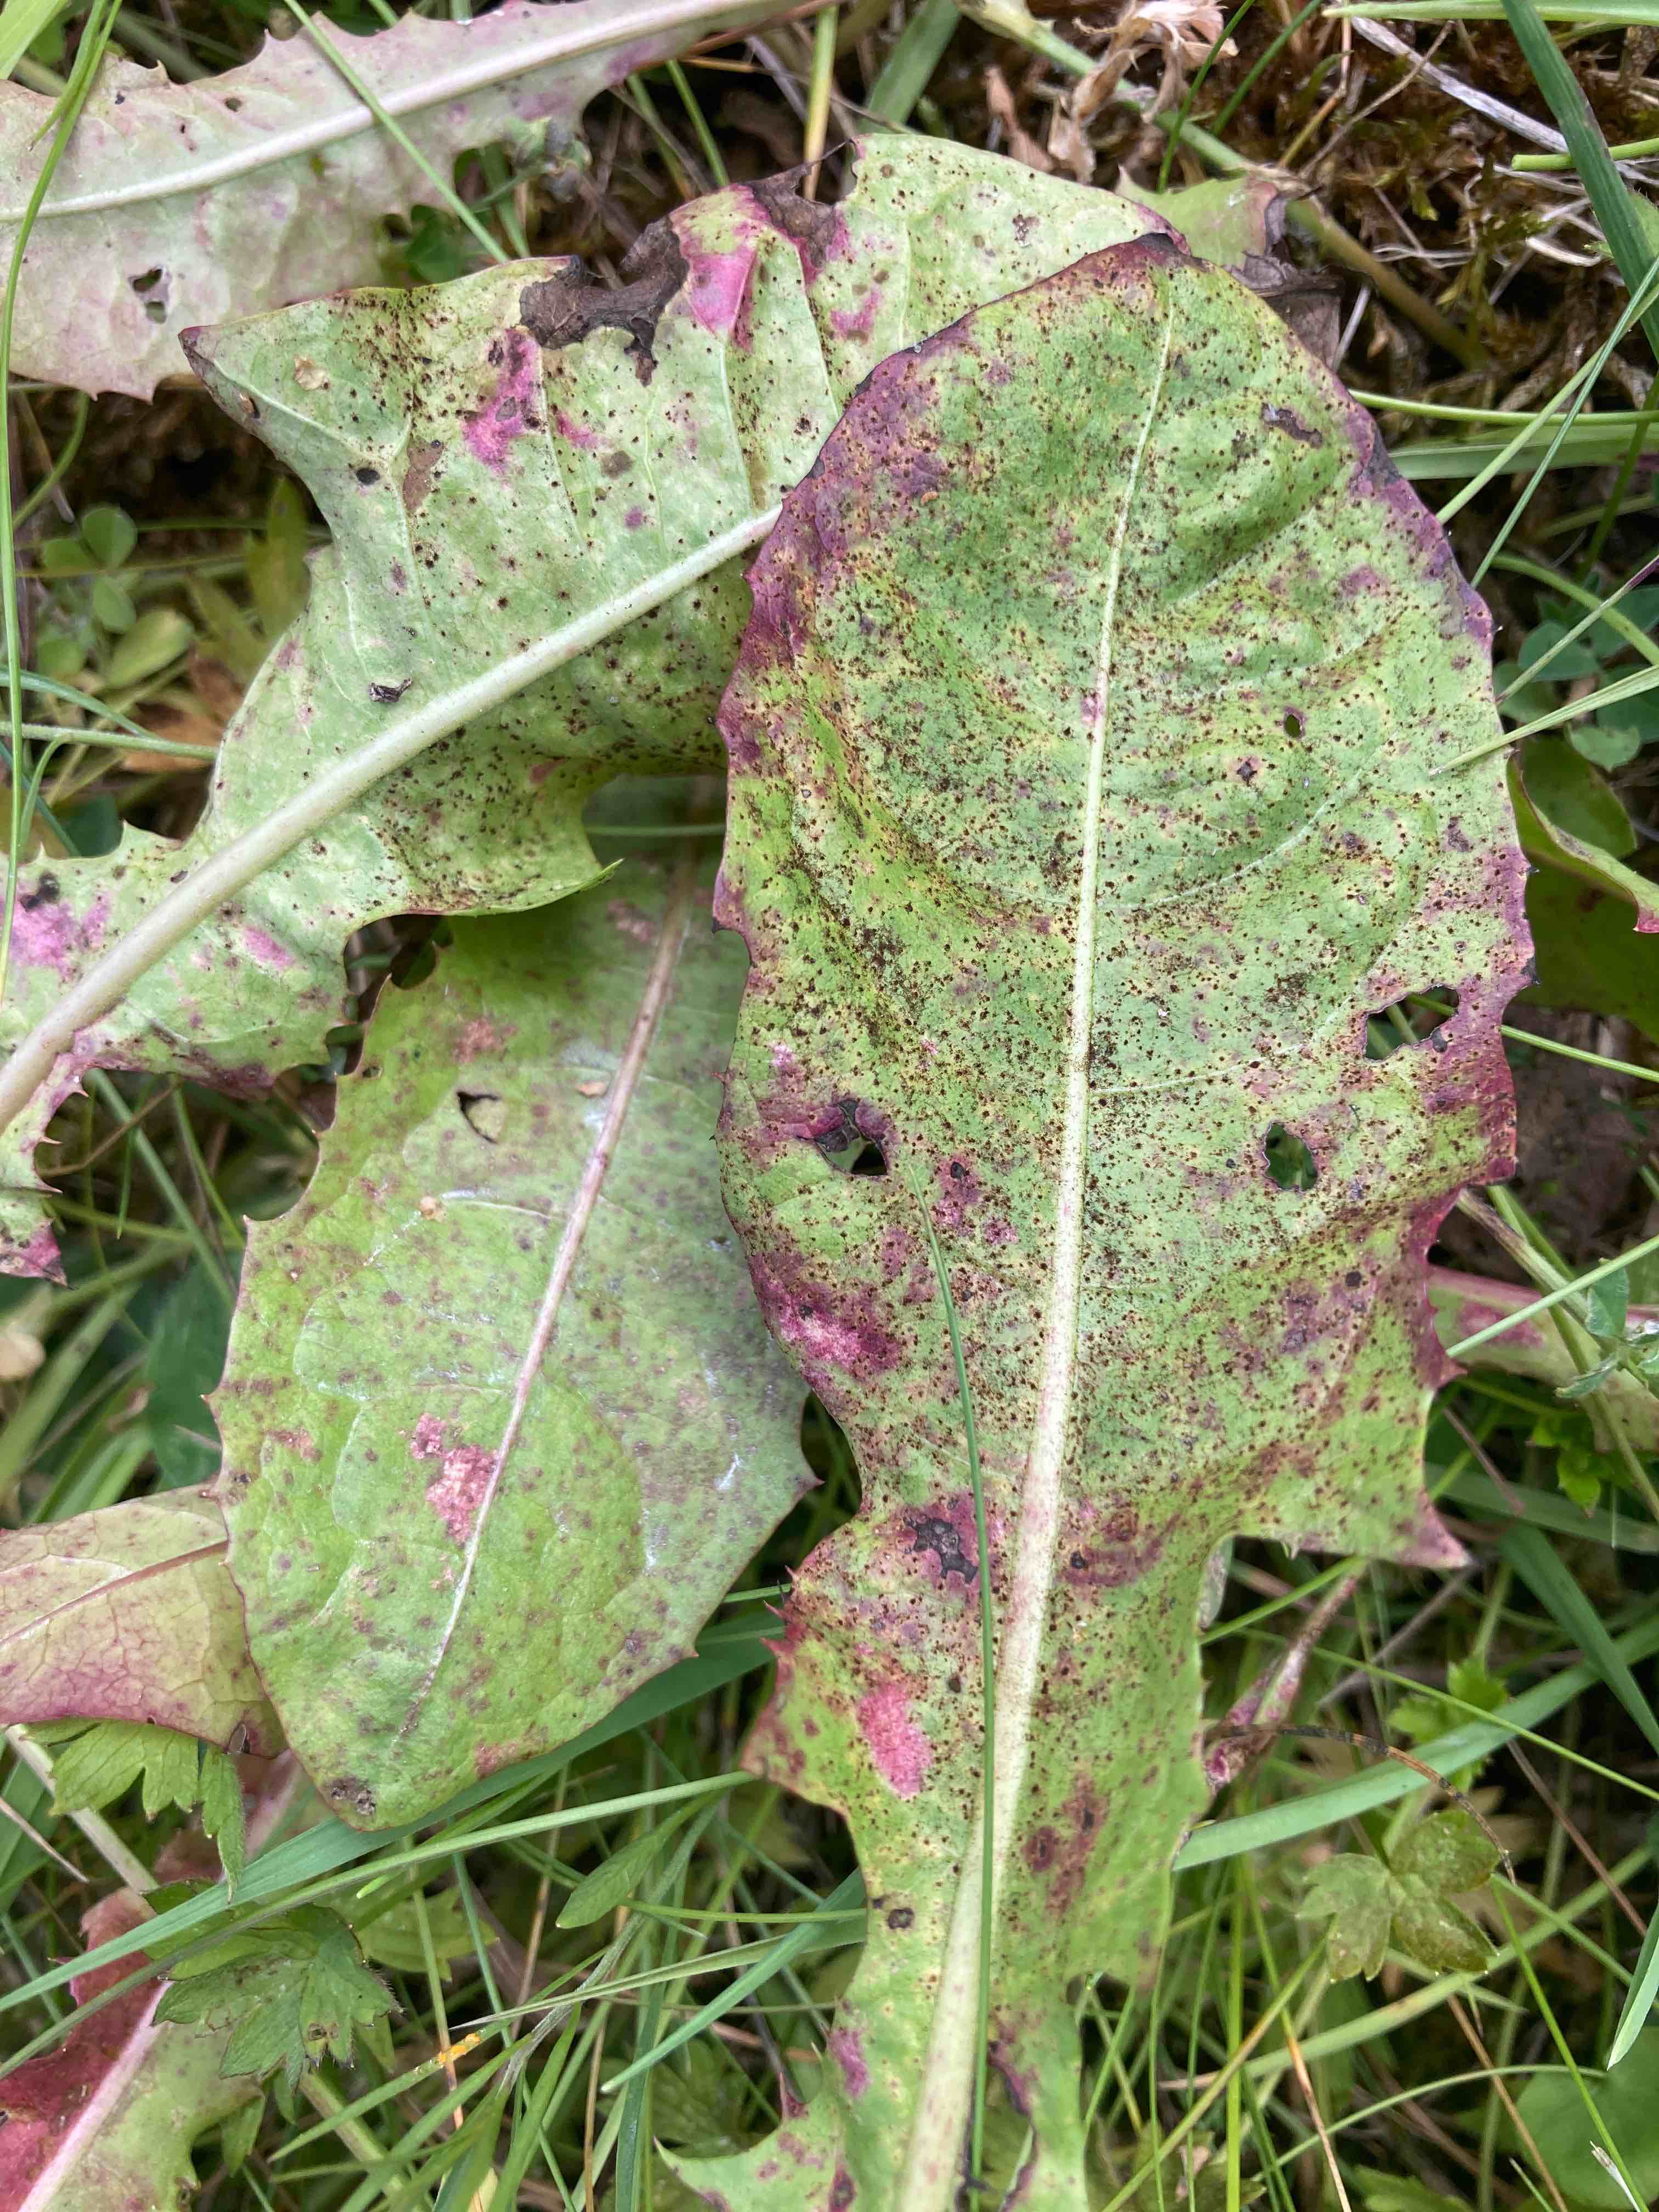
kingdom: Fungi
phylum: Basidiomycota
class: Pucciniomycetes
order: Pucciniales
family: Pucciniaceae
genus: Puccinia
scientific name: Puccinia hieracii
